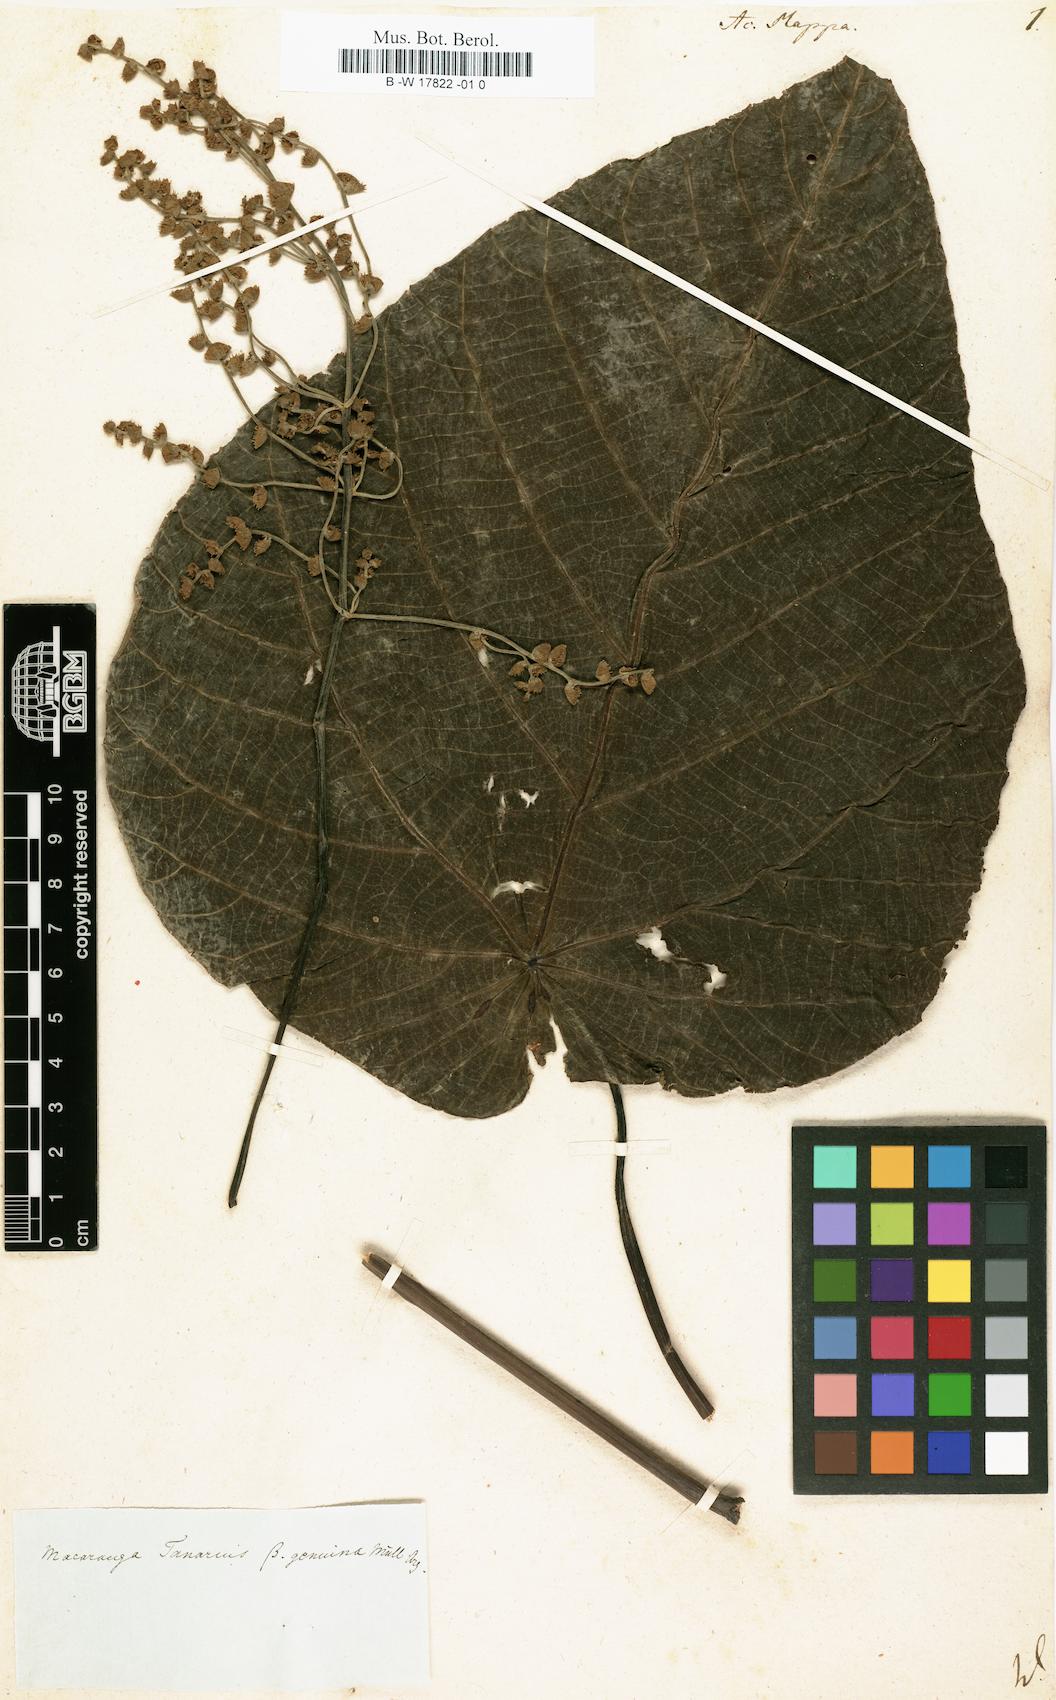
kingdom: Plantae
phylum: Tracheophyta
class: Magnoliopsida
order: Malpighiales
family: Euphorbiaceae
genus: Macaranga
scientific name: Macaranga mappa
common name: Pengua
